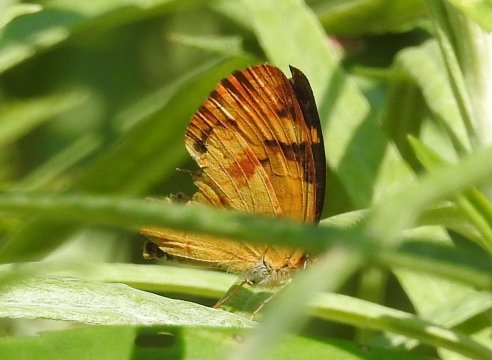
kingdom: Animalia
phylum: Arthropoda
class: Insecta
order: Lepidoptera
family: Nymphalidae
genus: Phyciodes
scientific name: Phyciodes tharos
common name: Northern Crescent
